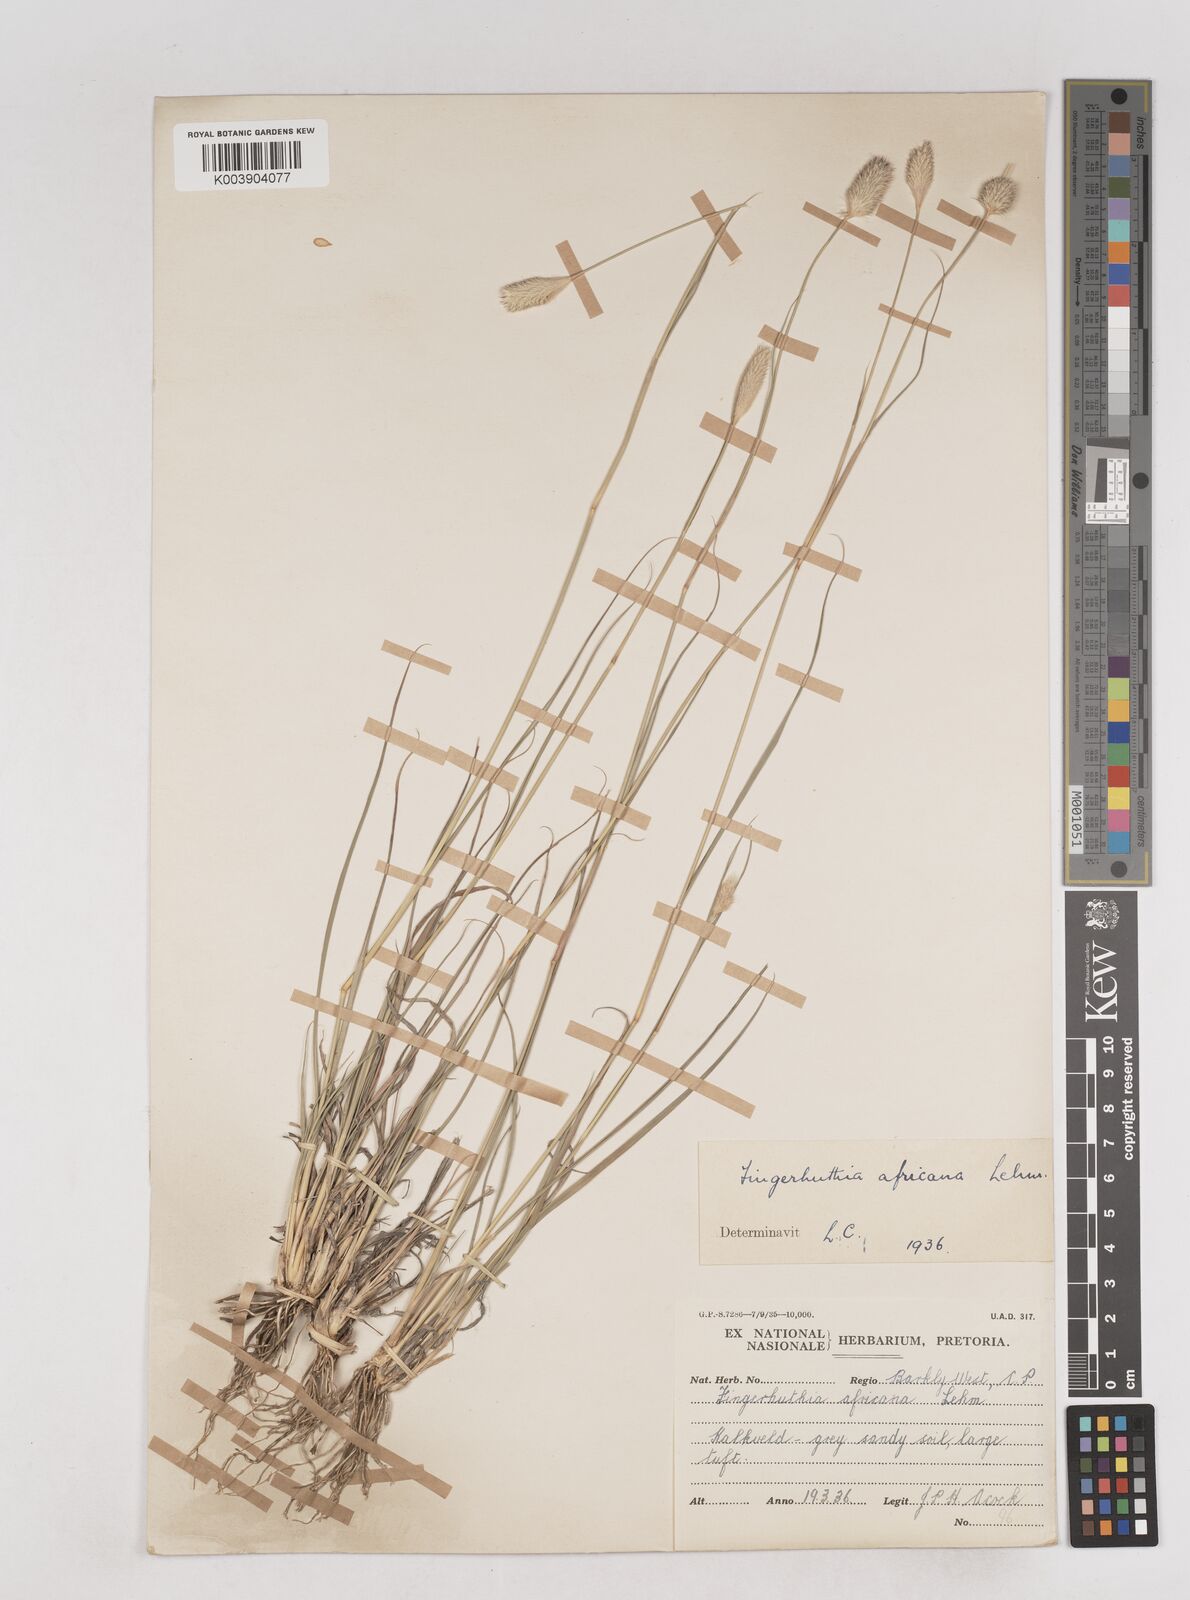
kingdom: Plantae
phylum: Tracheophyta
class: Liliopsida
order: Poales
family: Poaceae
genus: Fingerhuthia
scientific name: Fingerhuthia africana
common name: Zulu fescue
